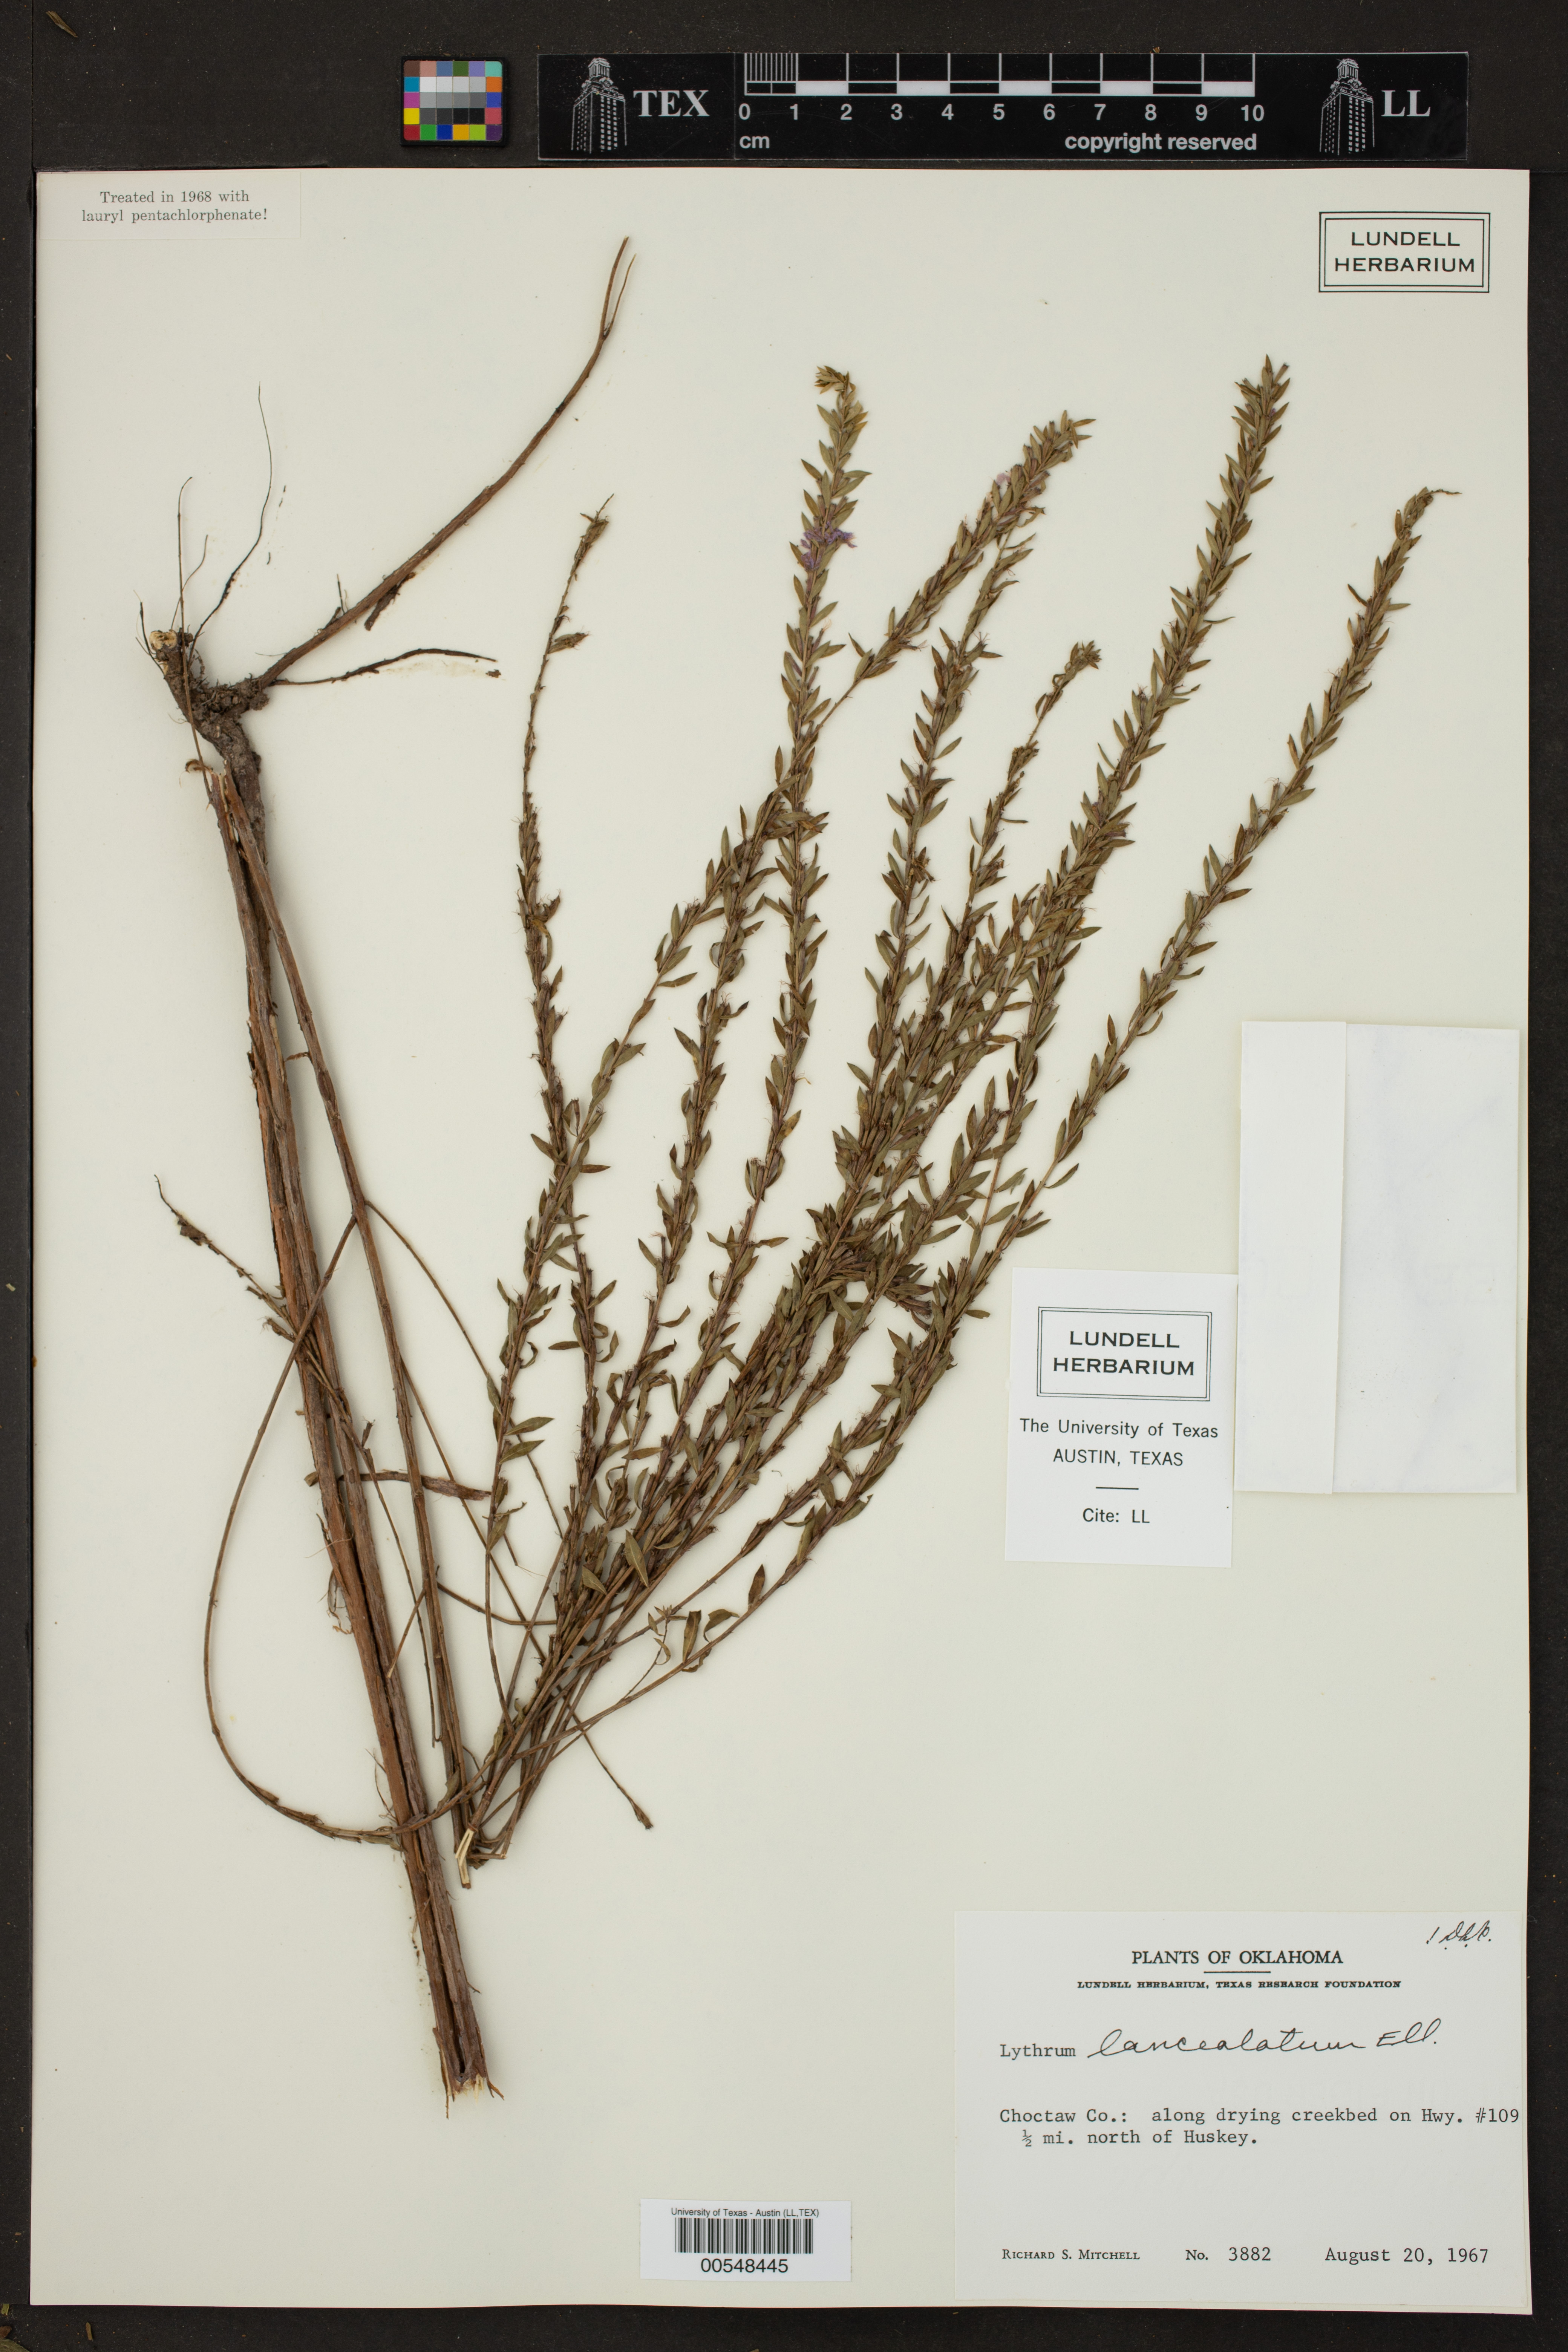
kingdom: Plantae
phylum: Tracheophyta
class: Magnoliopsida
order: Myrtales
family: Lythraceae
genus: Lythrum
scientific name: Lythrum alatum
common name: Winged loosestrife
